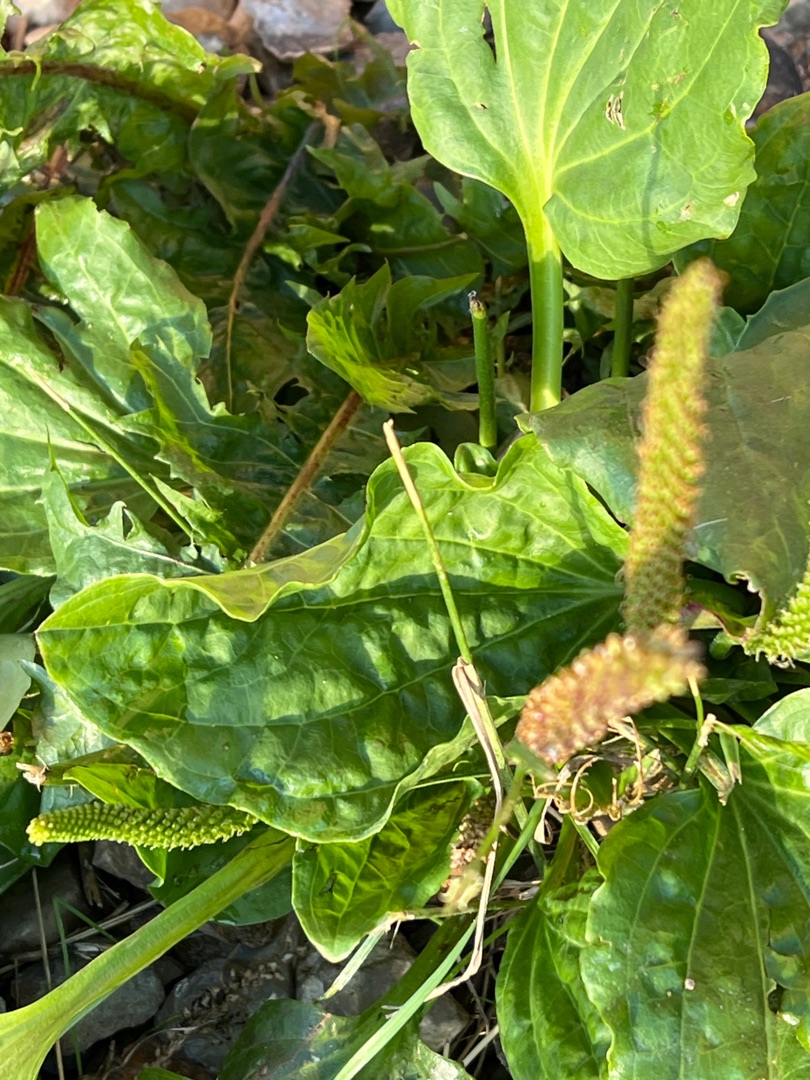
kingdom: Plantae
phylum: Tracheophyta
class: Magnoliopsida
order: Lamiales
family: Plantaginaceae
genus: Plantago
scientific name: Plantago major
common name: Glat vejbred
